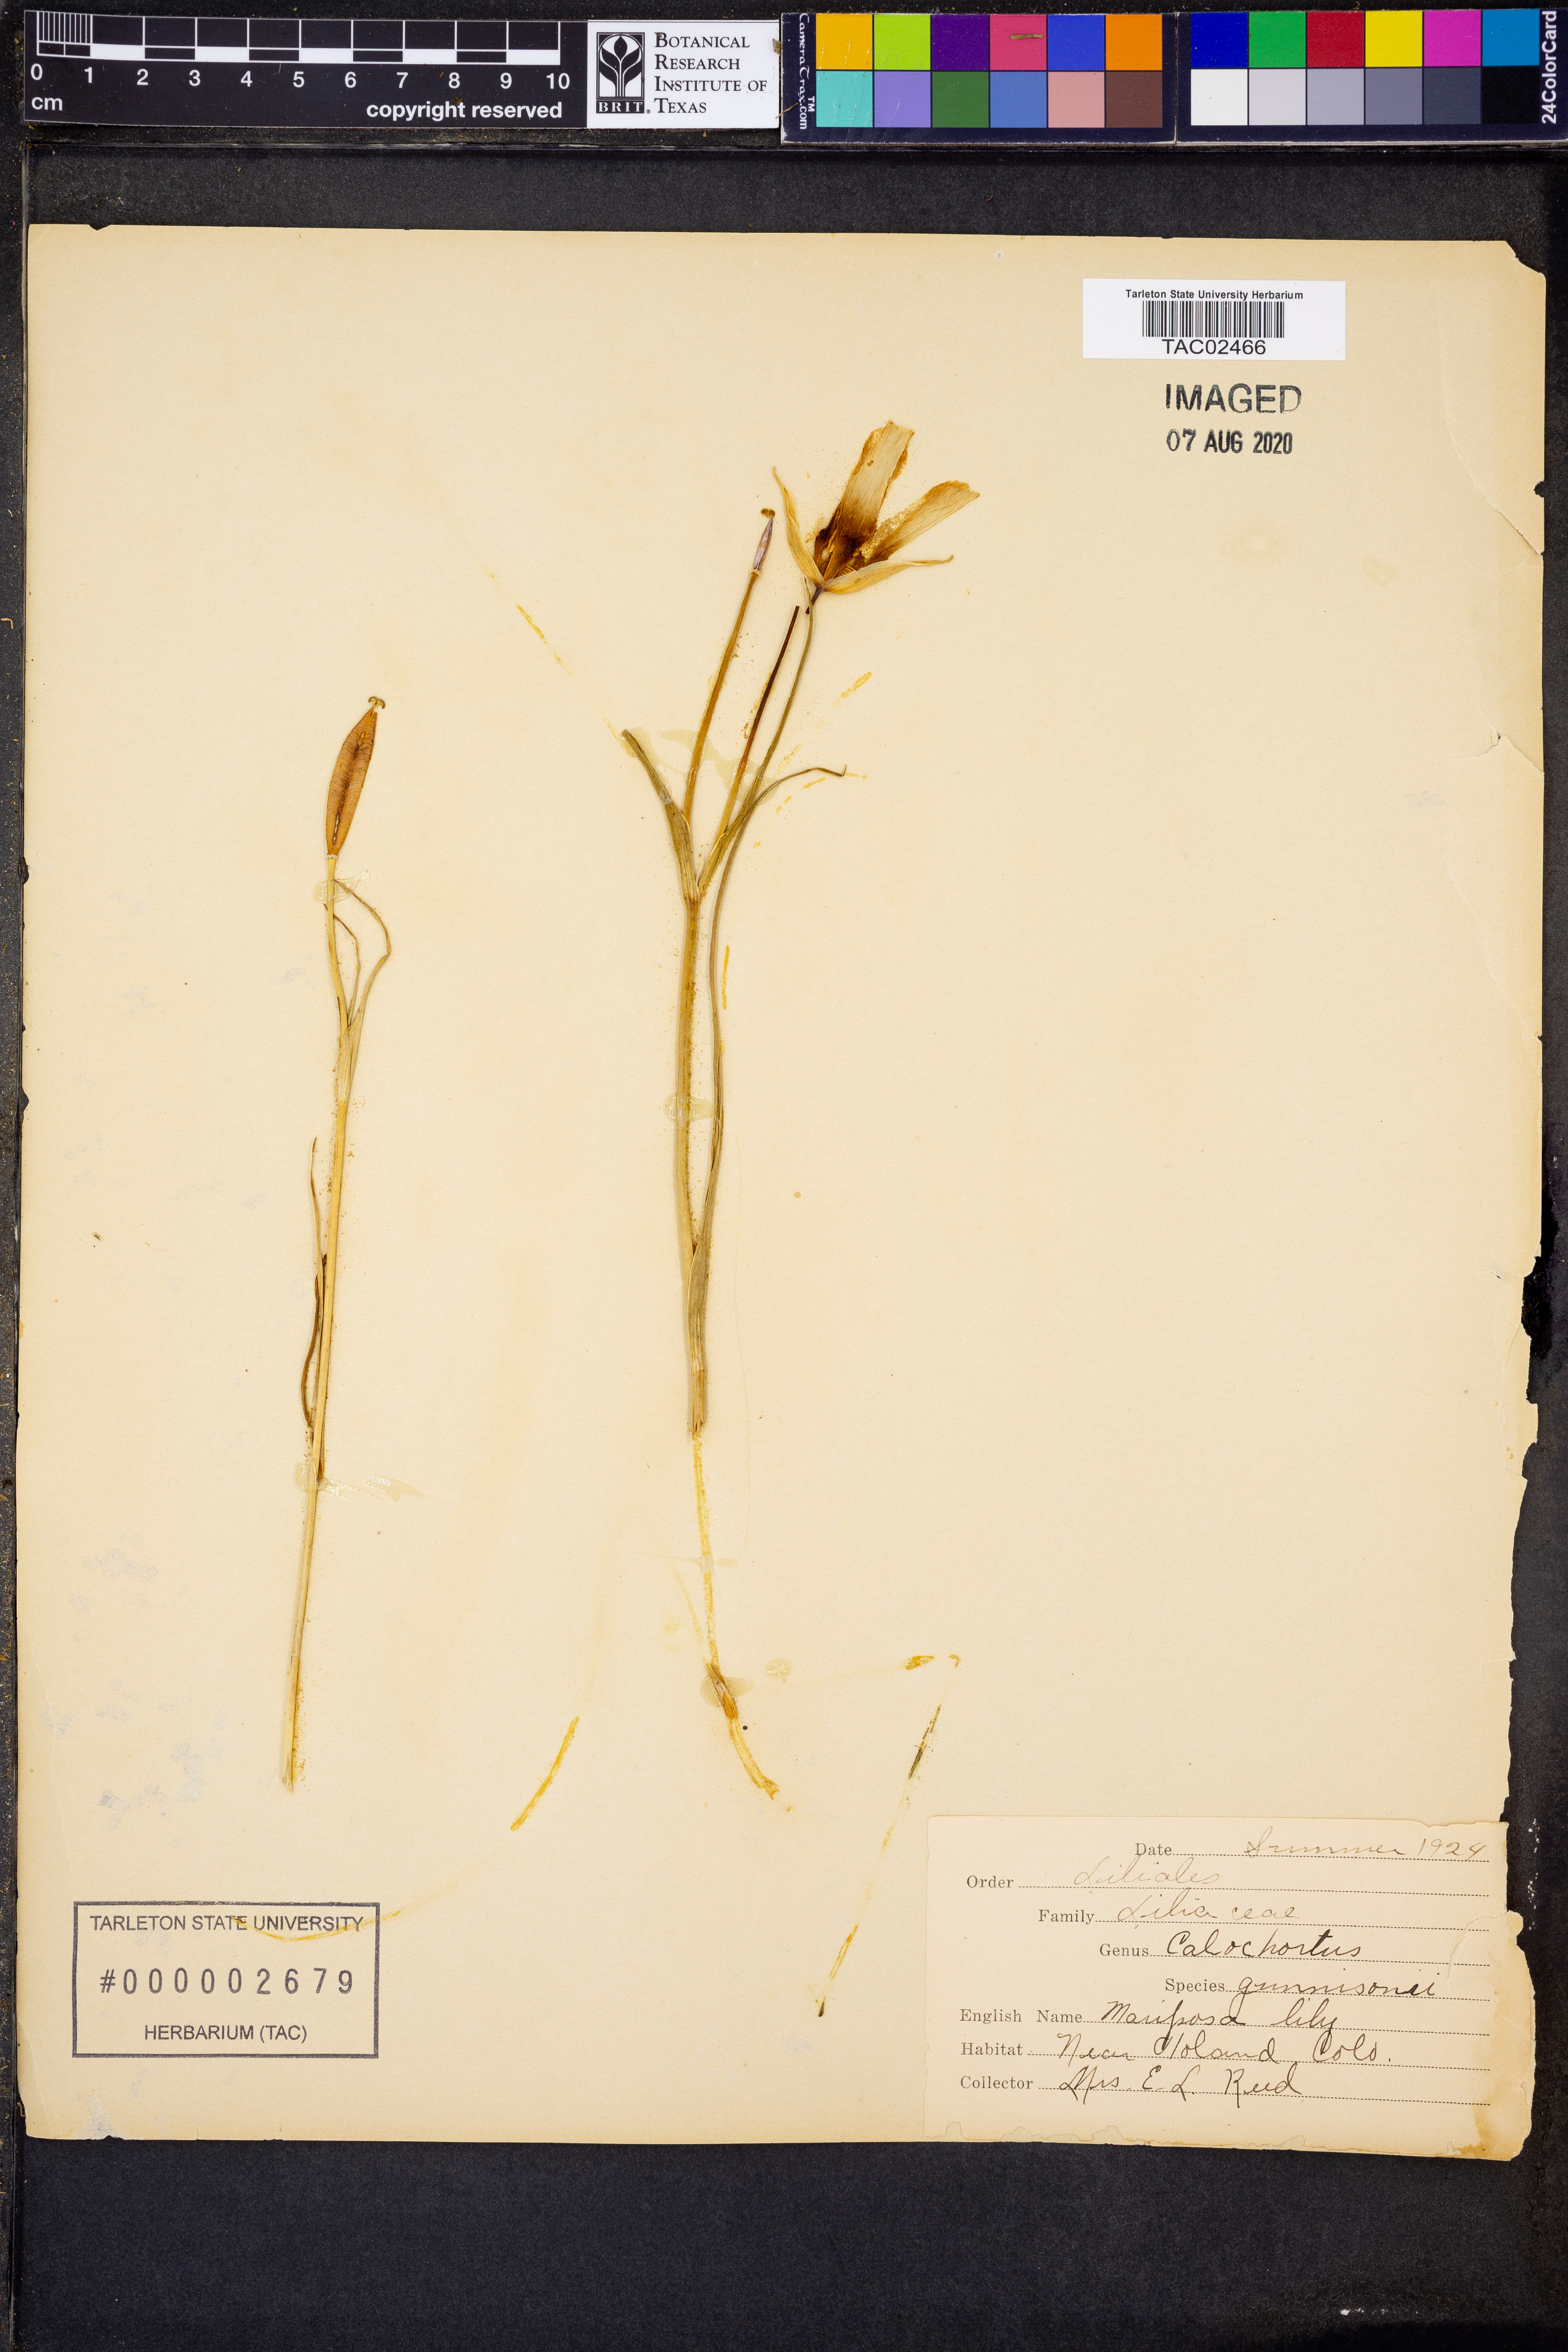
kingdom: Plantae
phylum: Tracheophyta
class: Liliopsida
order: Liliales
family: Liliaceae
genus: Calochortus
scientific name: Calochortus gunnisonii
